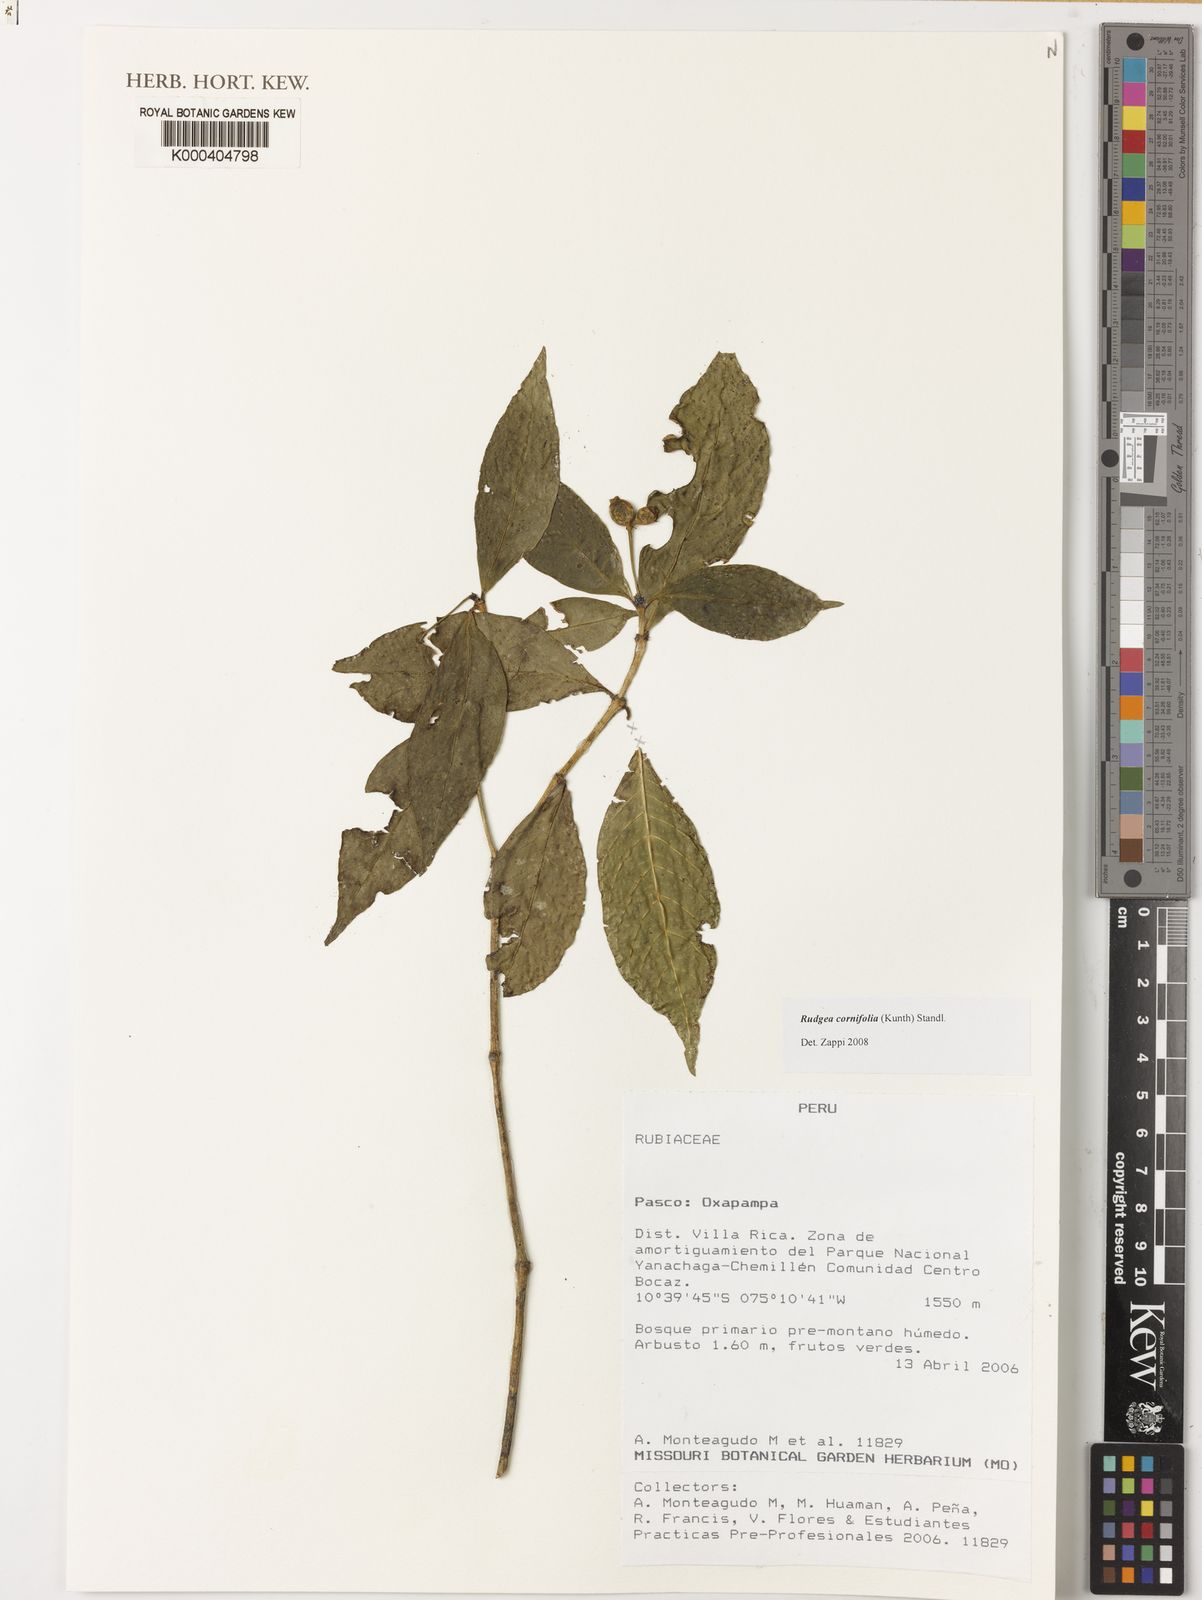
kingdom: Plantae
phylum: Tracheophyta
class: Magnoliopsida
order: Gentianales
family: Rubiaceae
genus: Rudgea
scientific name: Rudgea cornifolia
